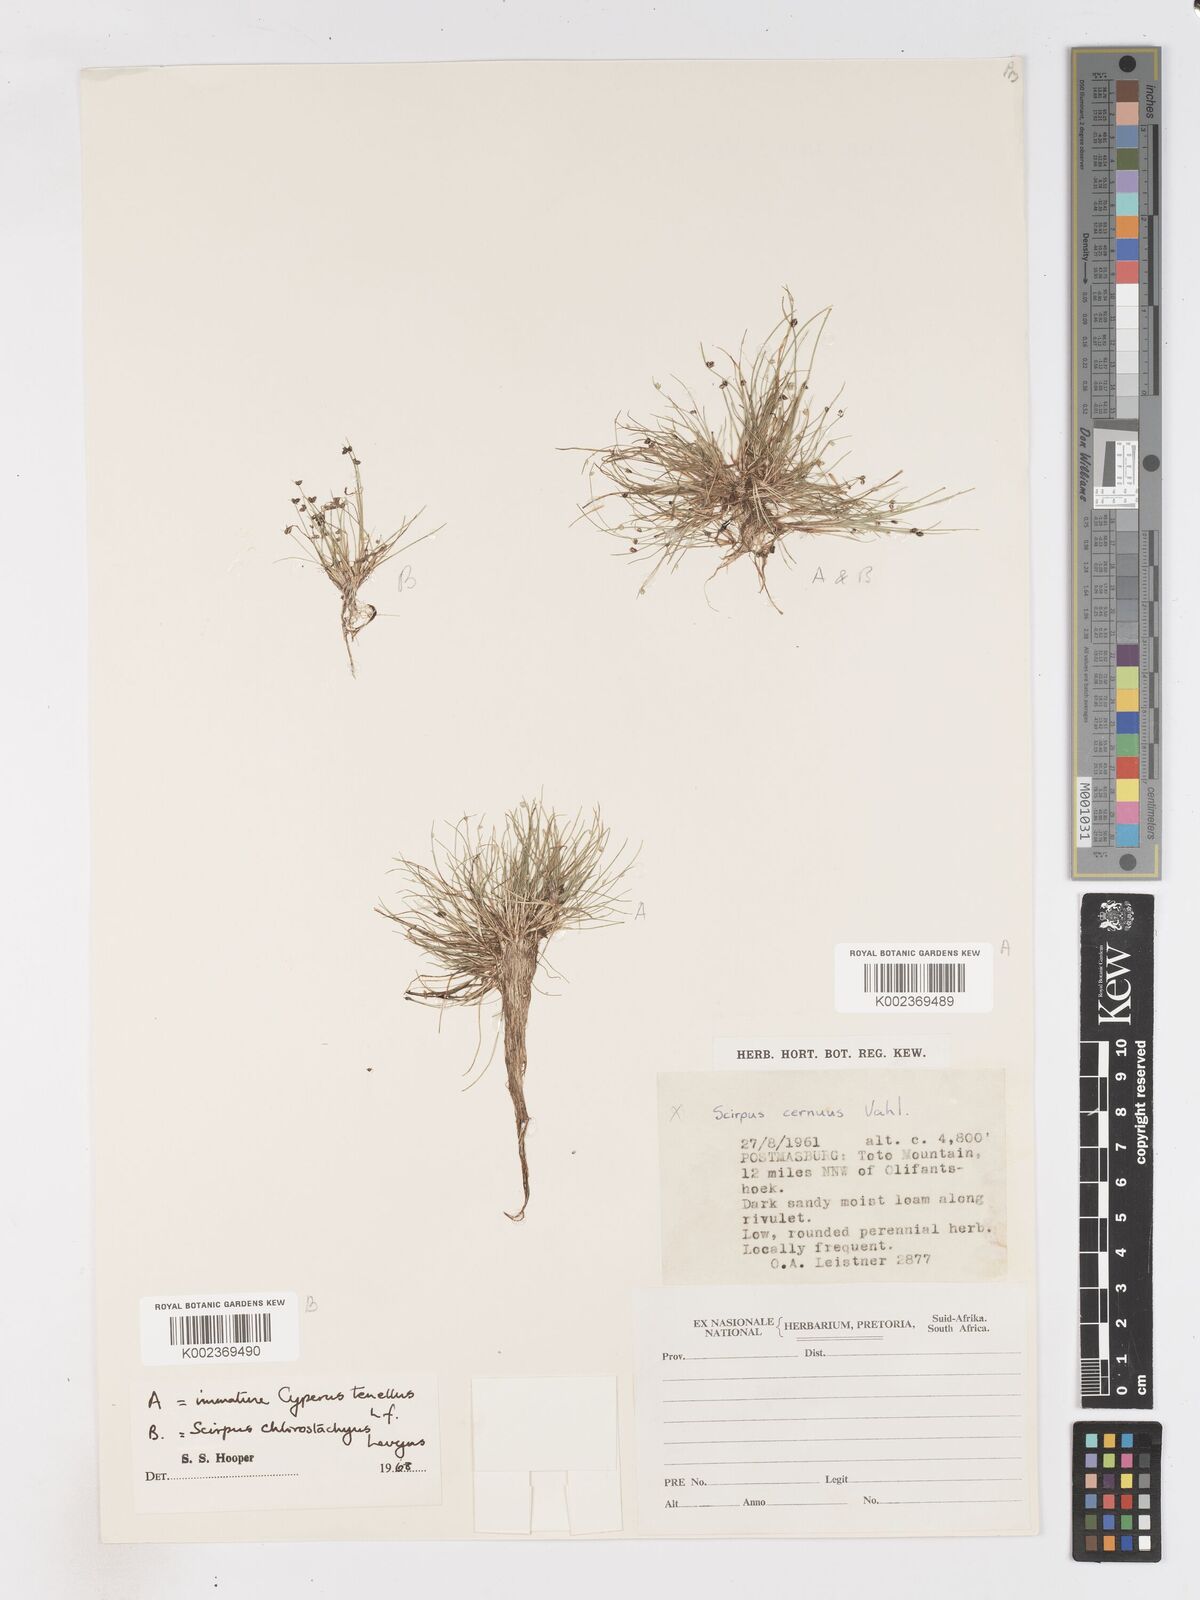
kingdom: Plantae
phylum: Tracheophyta
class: Liliopsida
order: Poales
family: Cyperaceae
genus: Isolepis
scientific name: Isolepis sepulcralis
